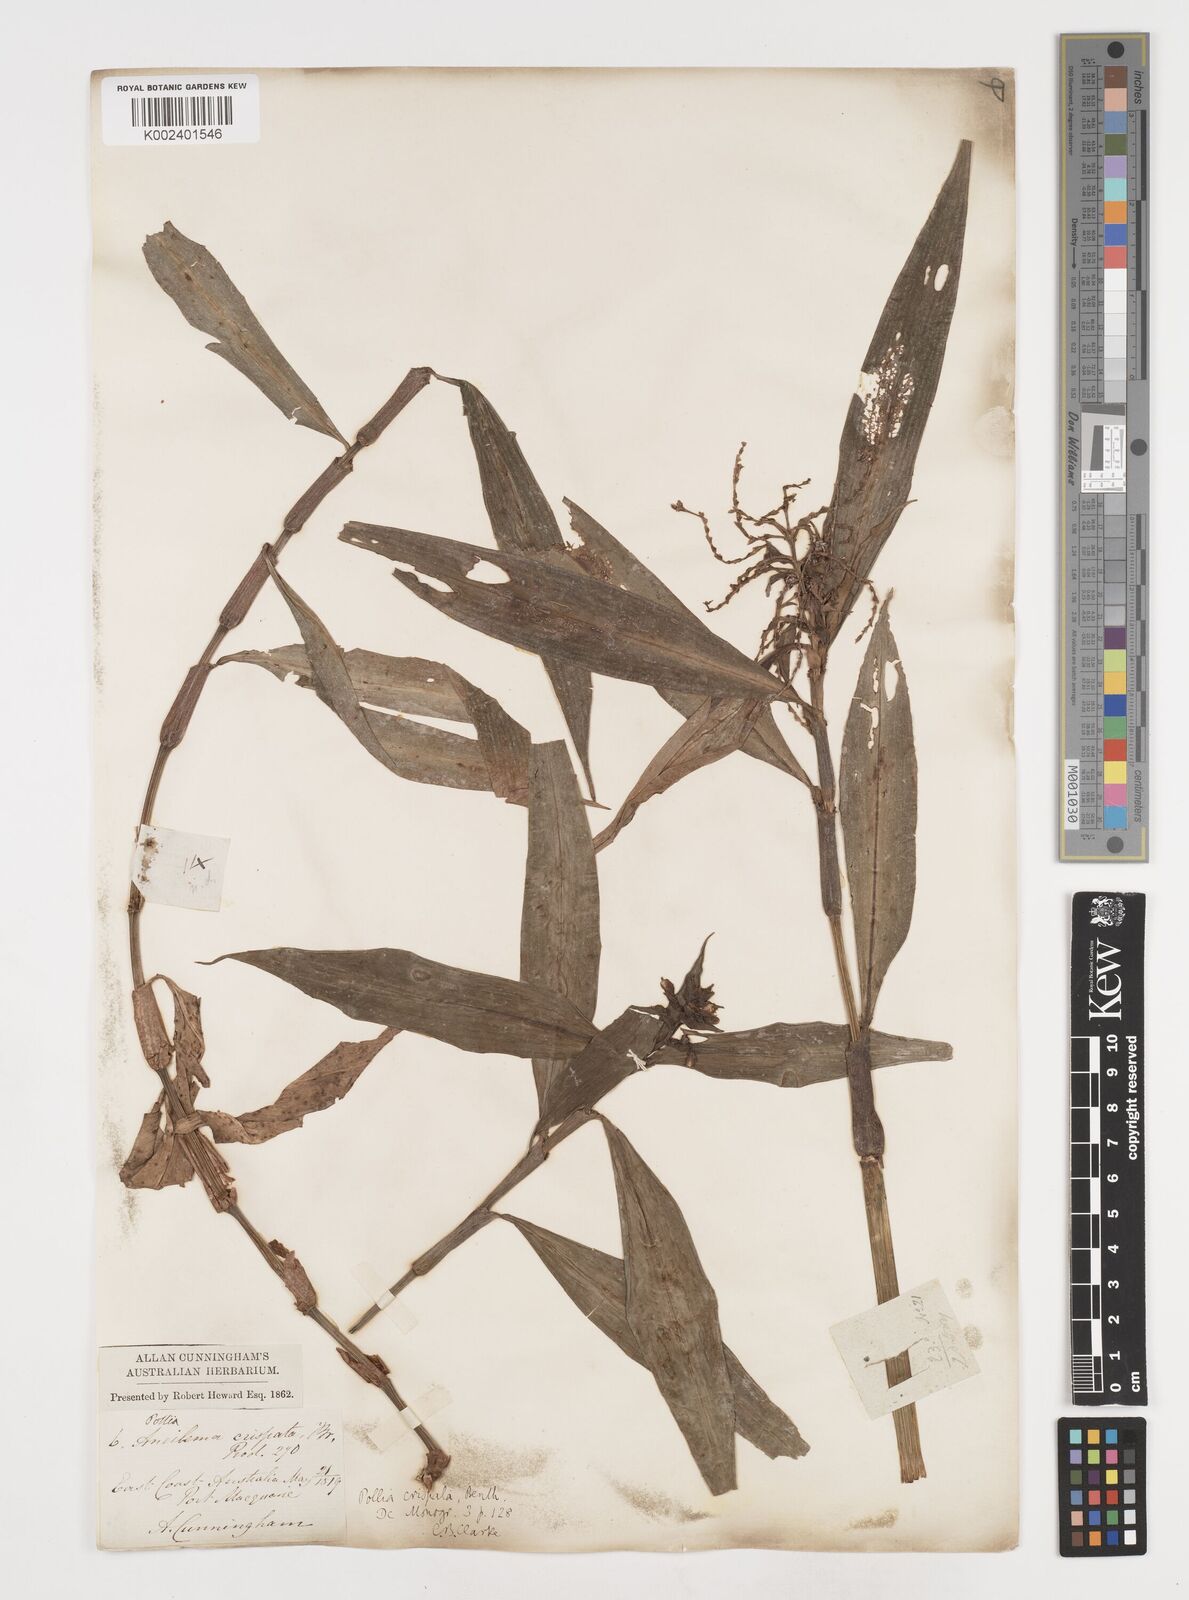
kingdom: Plantae
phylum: Tracheophyta
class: Liliopsida
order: Commelinales
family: Commelinaceae
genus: Pollia
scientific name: Pollia crispata
